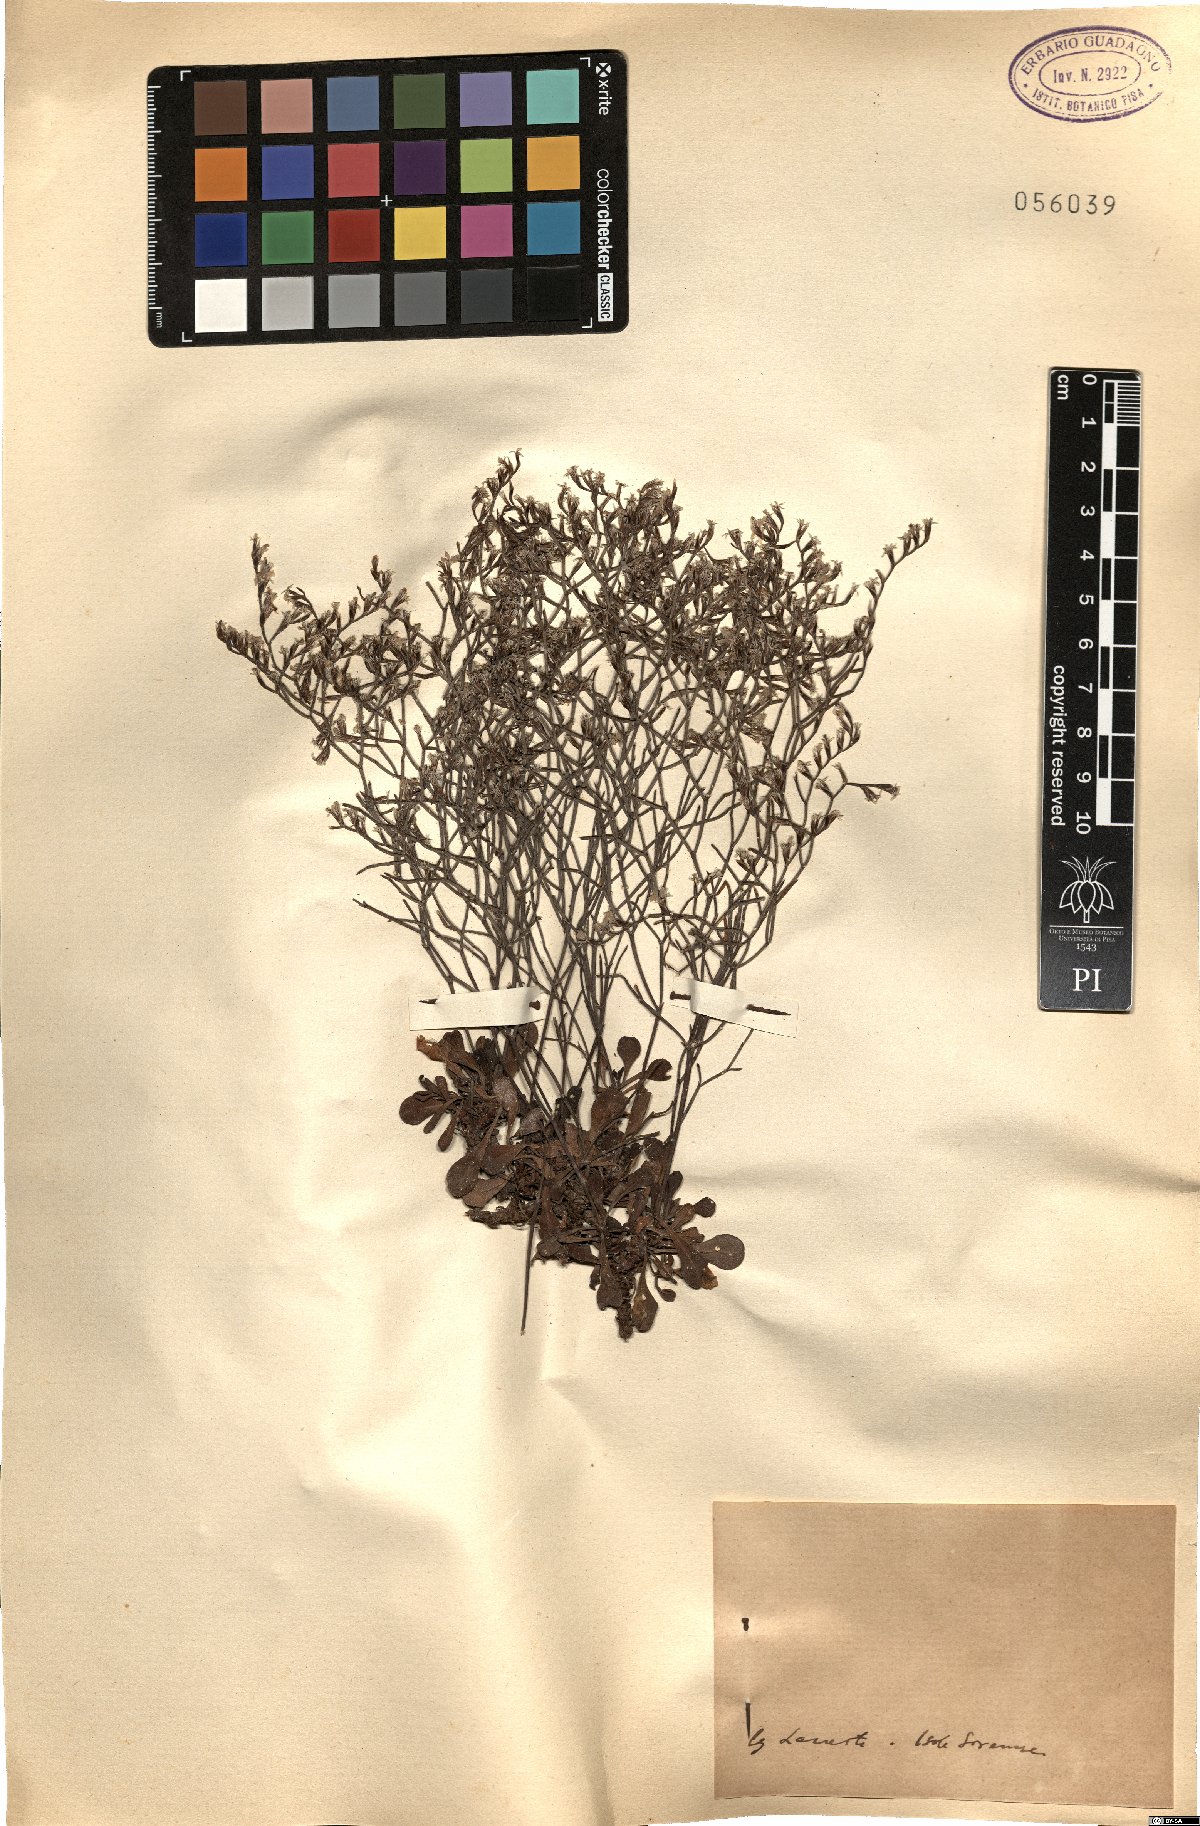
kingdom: Plantae
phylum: Tracheophyta
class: Magnoliopsida
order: Caryophyllales
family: Plumbaginaceae
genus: Armeria
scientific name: Armeria
